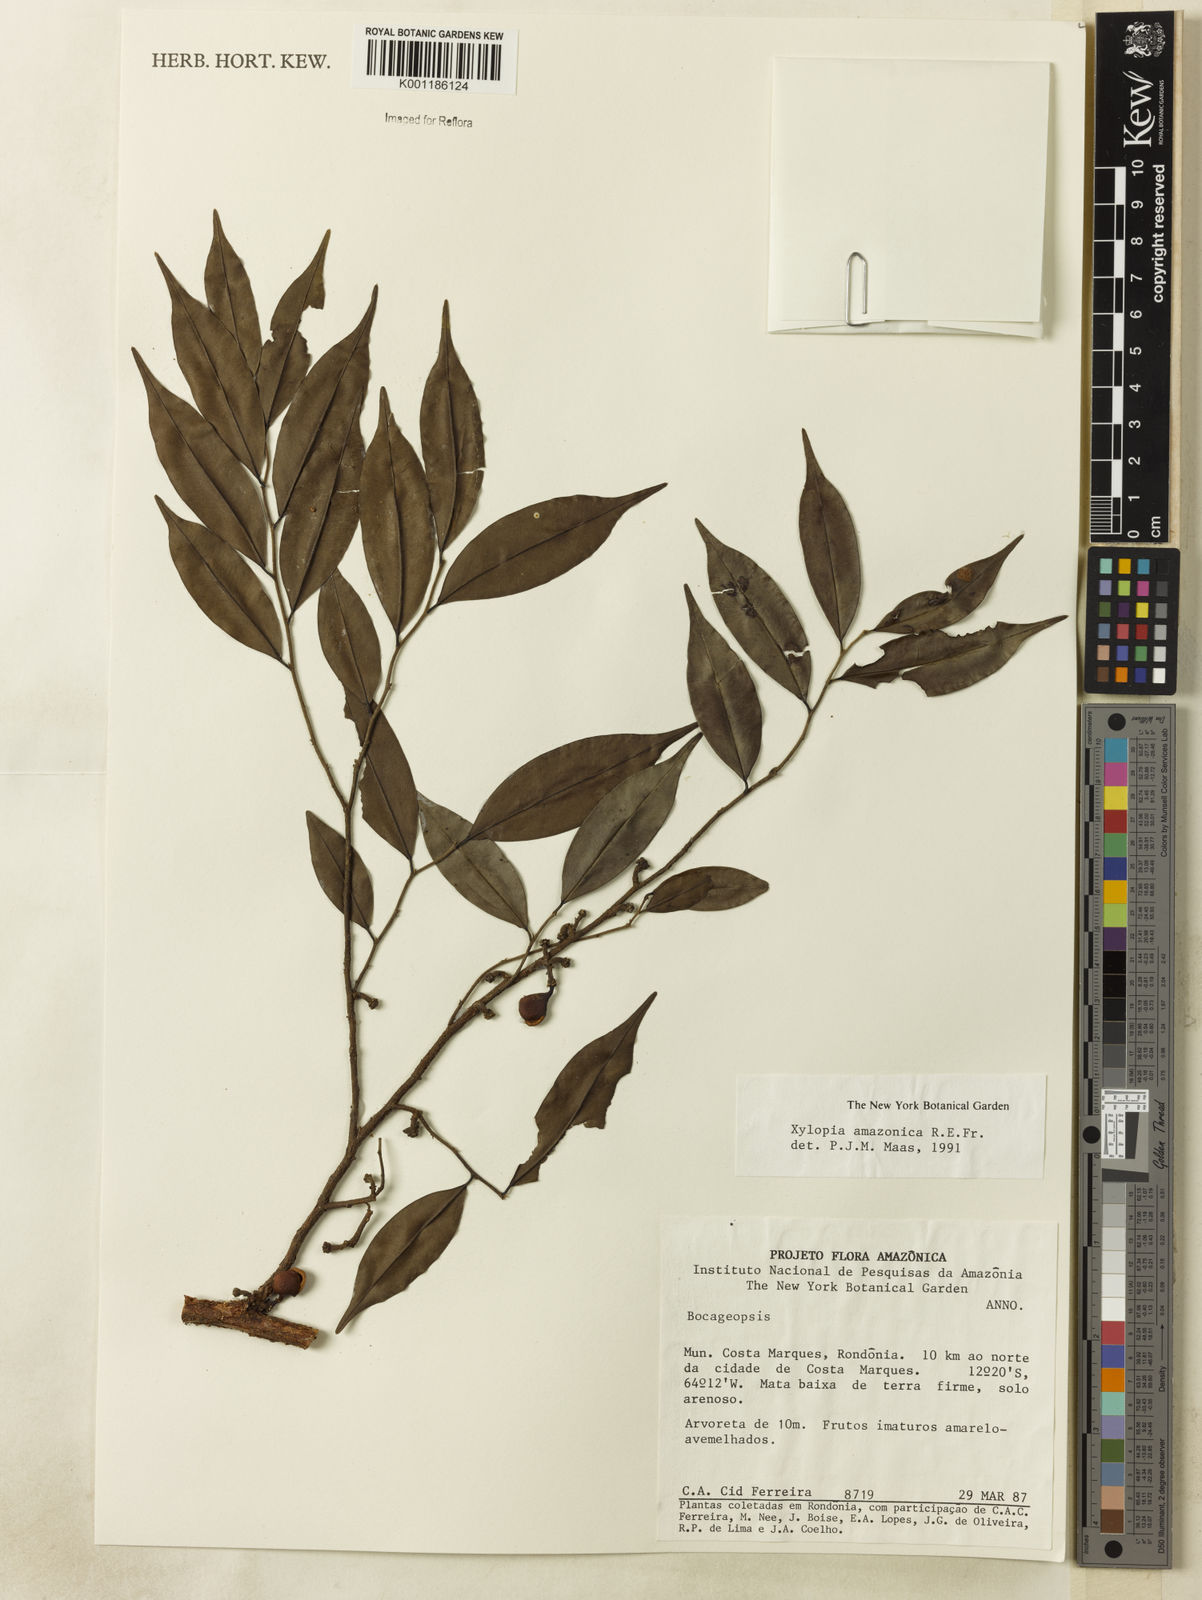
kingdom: Plantae
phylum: Tracheophyta
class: Magnoliopsida
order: Magnoliales
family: Annonaceae
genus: Xylopia
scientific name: Xylopia amazonica
